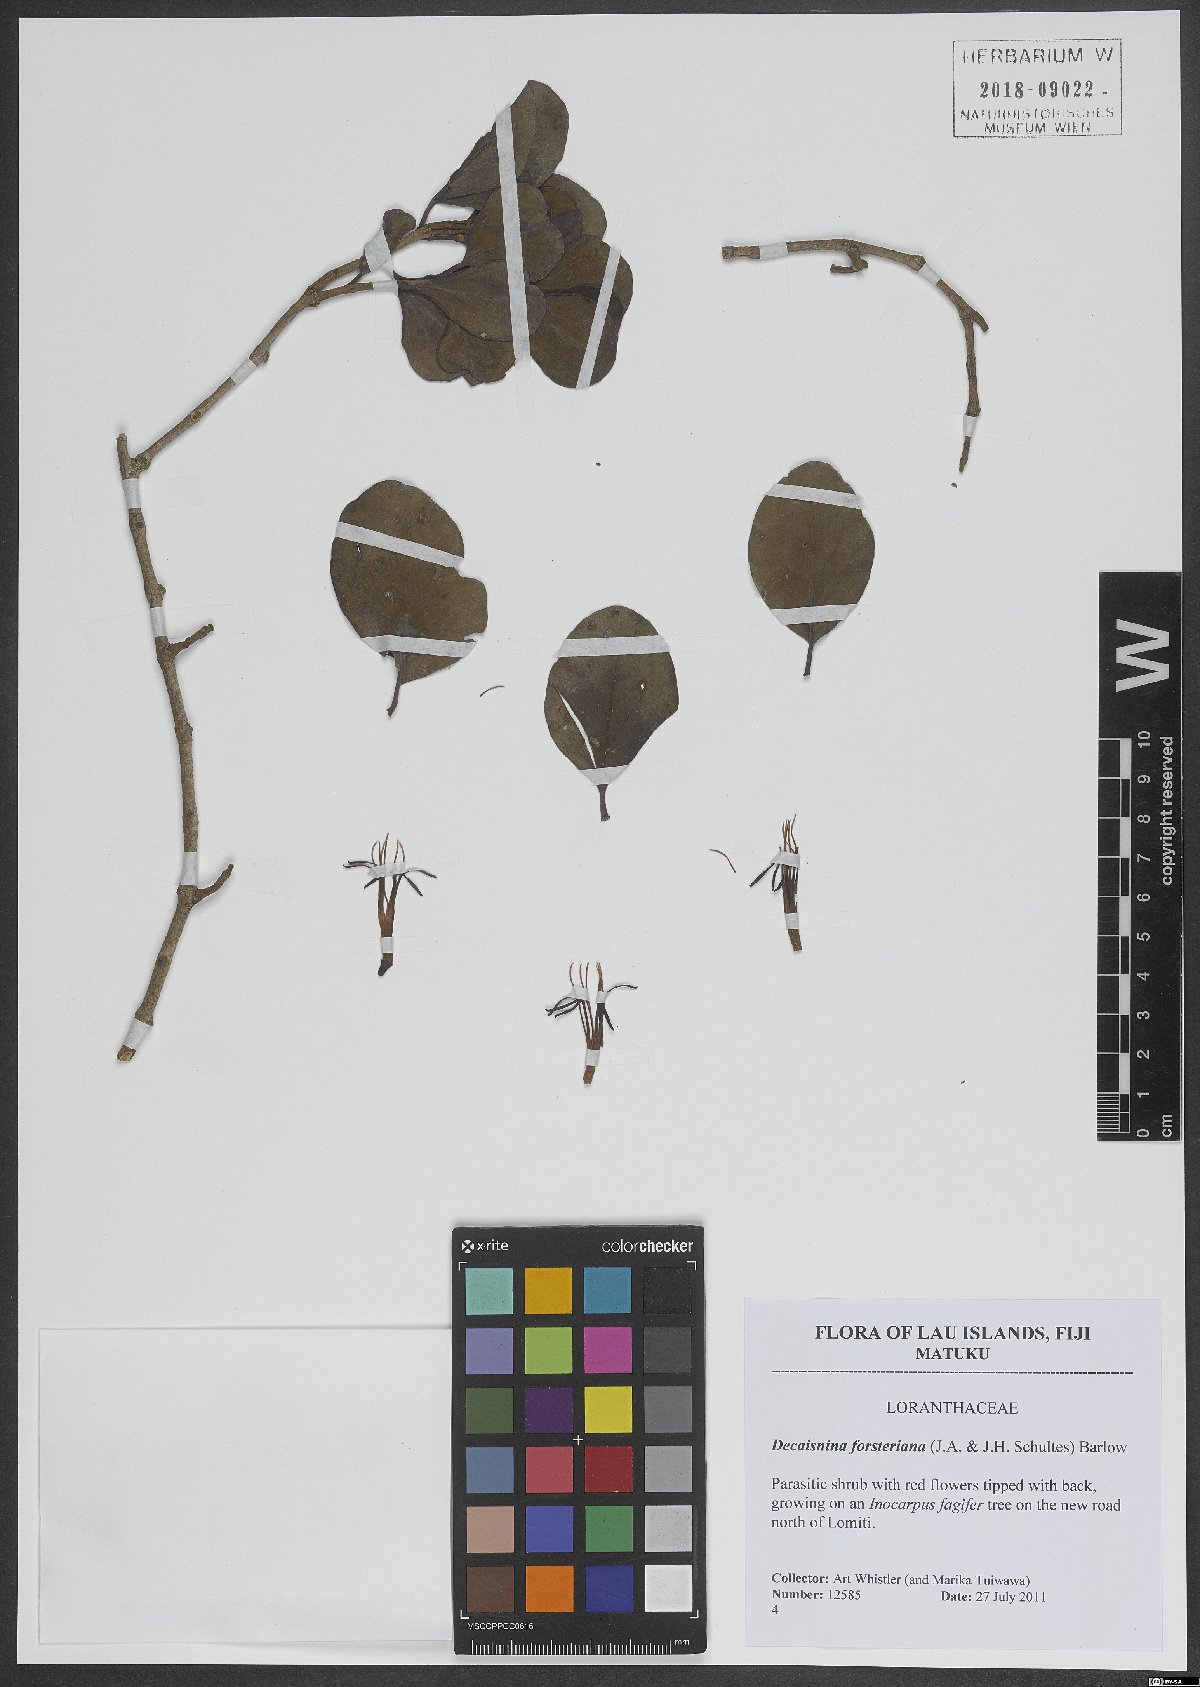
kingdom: Plantae
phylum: Tracheophyta
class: Magnoliopsida
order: Santalales
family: Loranthaceae
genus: Decaisnina
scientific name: Decaisnina forsteriana
